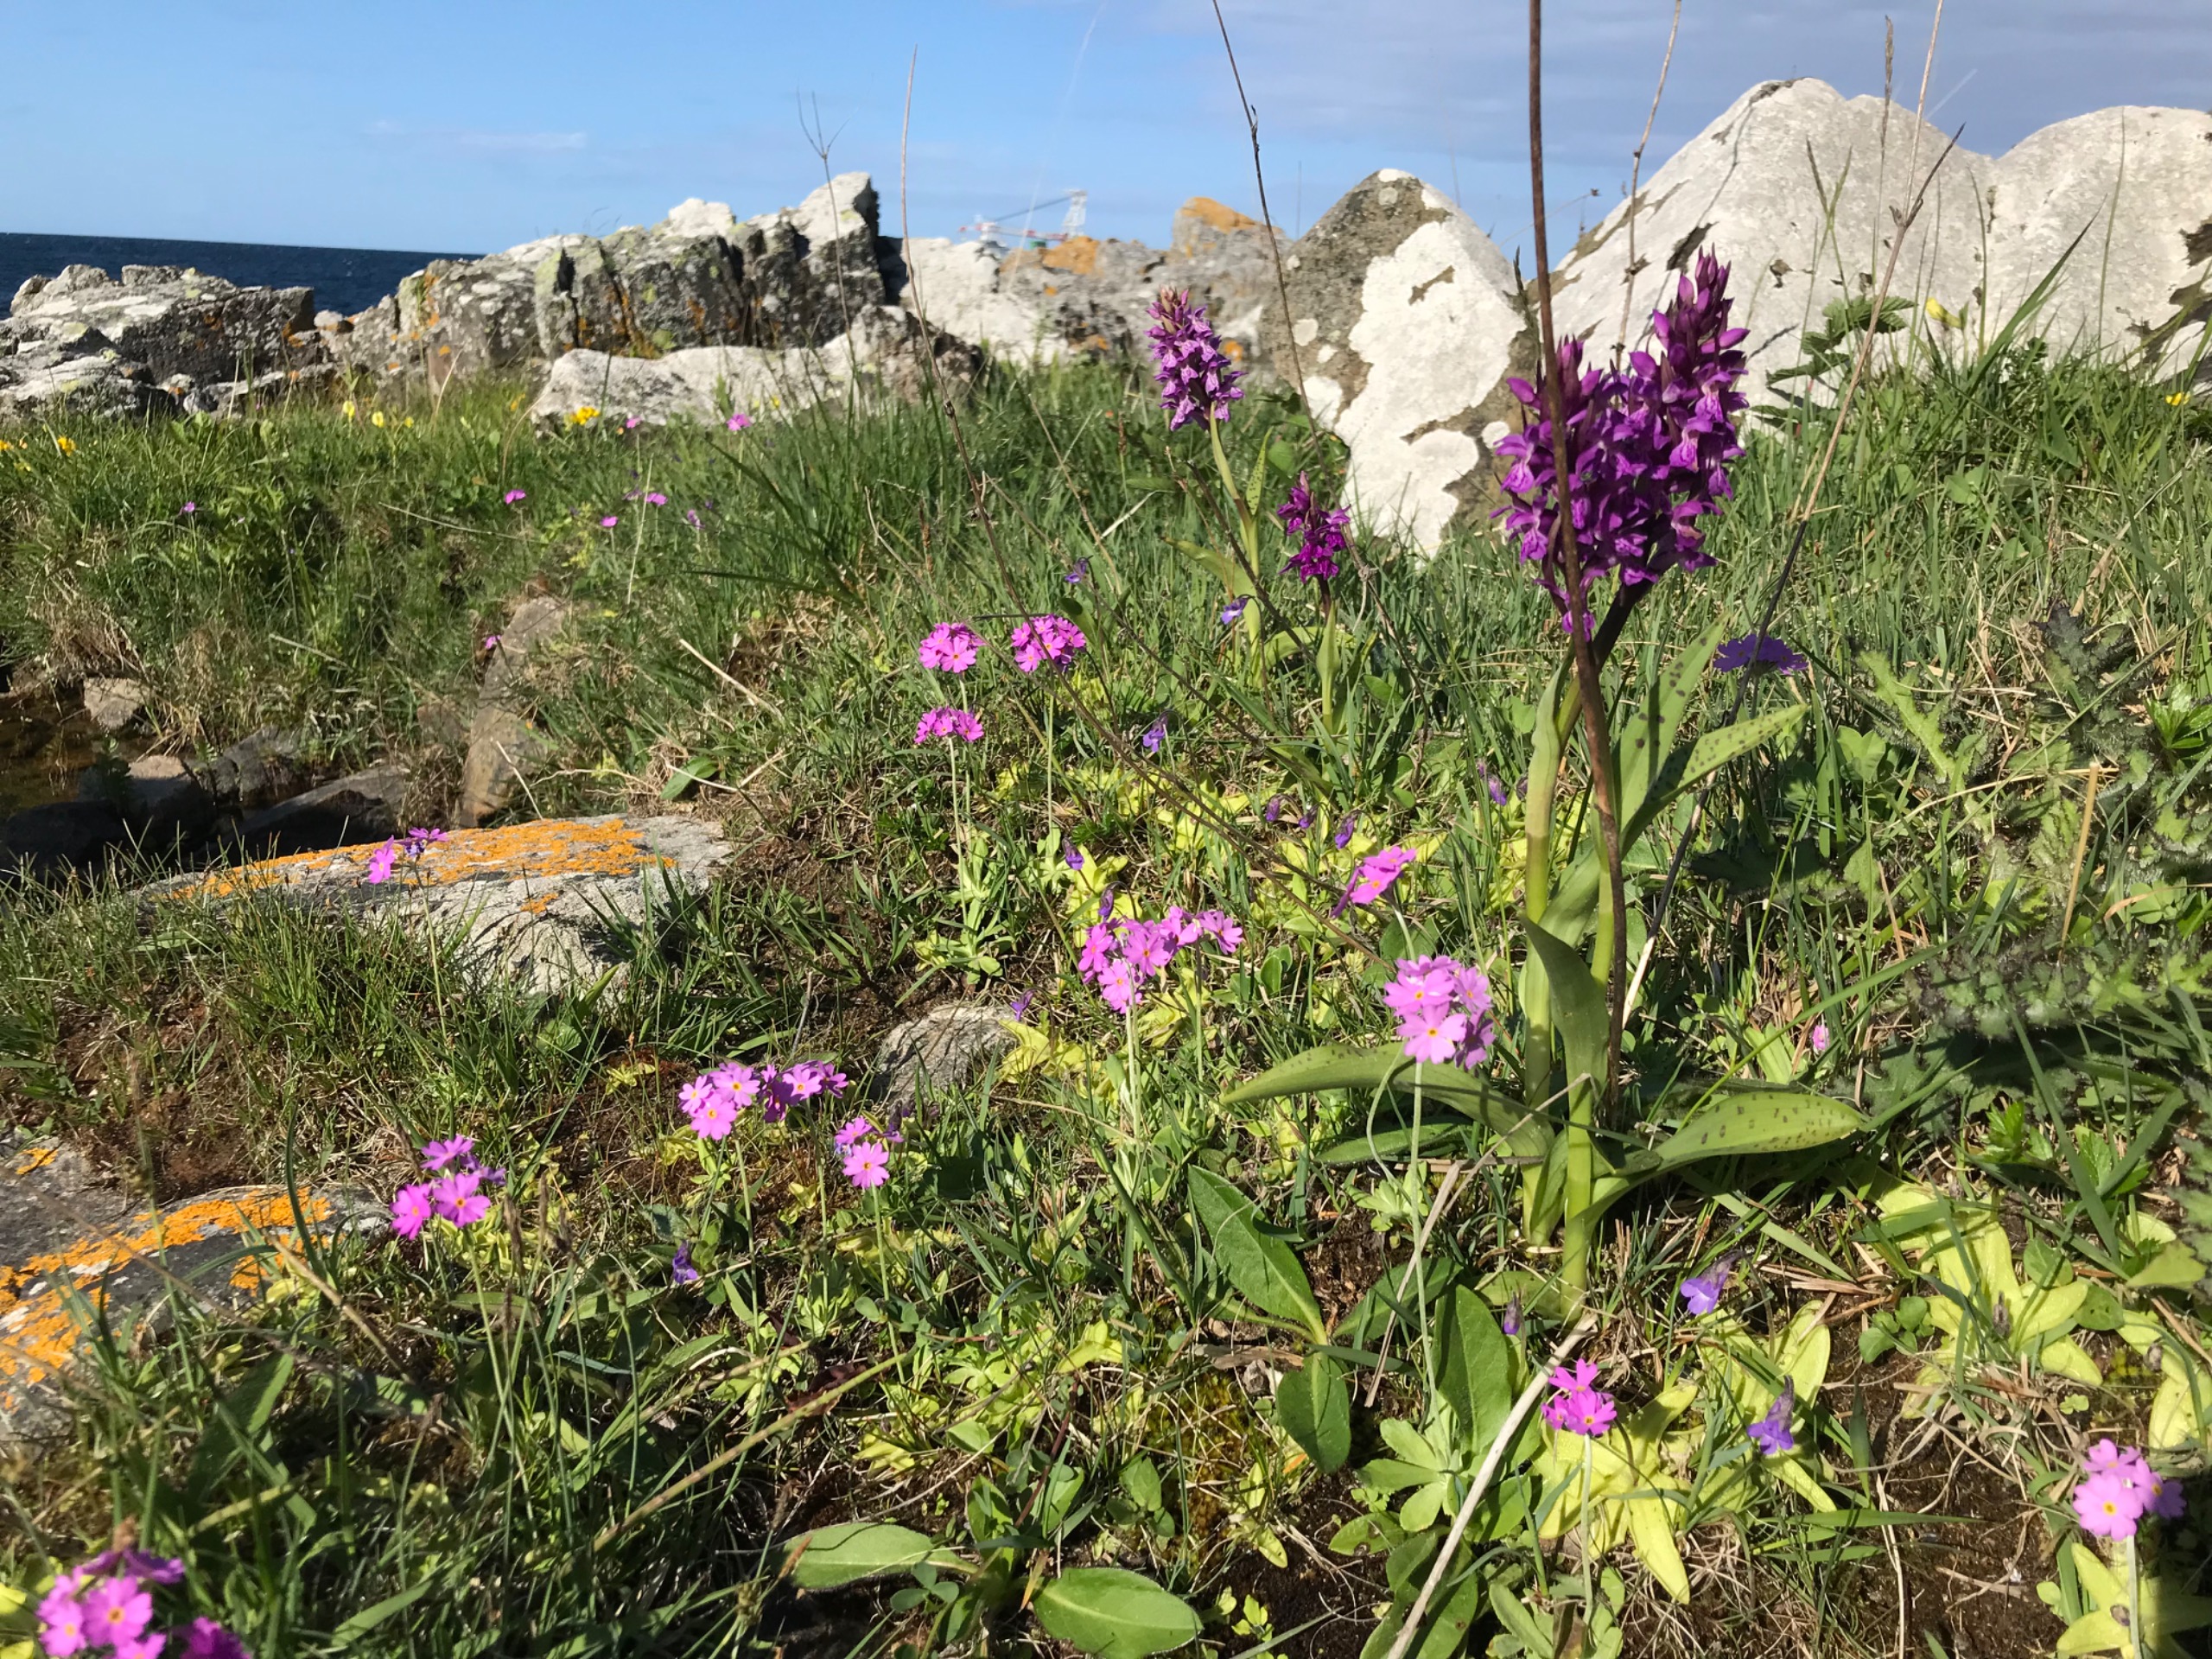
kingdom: Plantae
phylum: Tracheophyta
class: Magnoliopsida
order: Ericales
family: Primulaceae
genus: Primula
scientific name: Primula farinosa
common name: Melet kodriver
